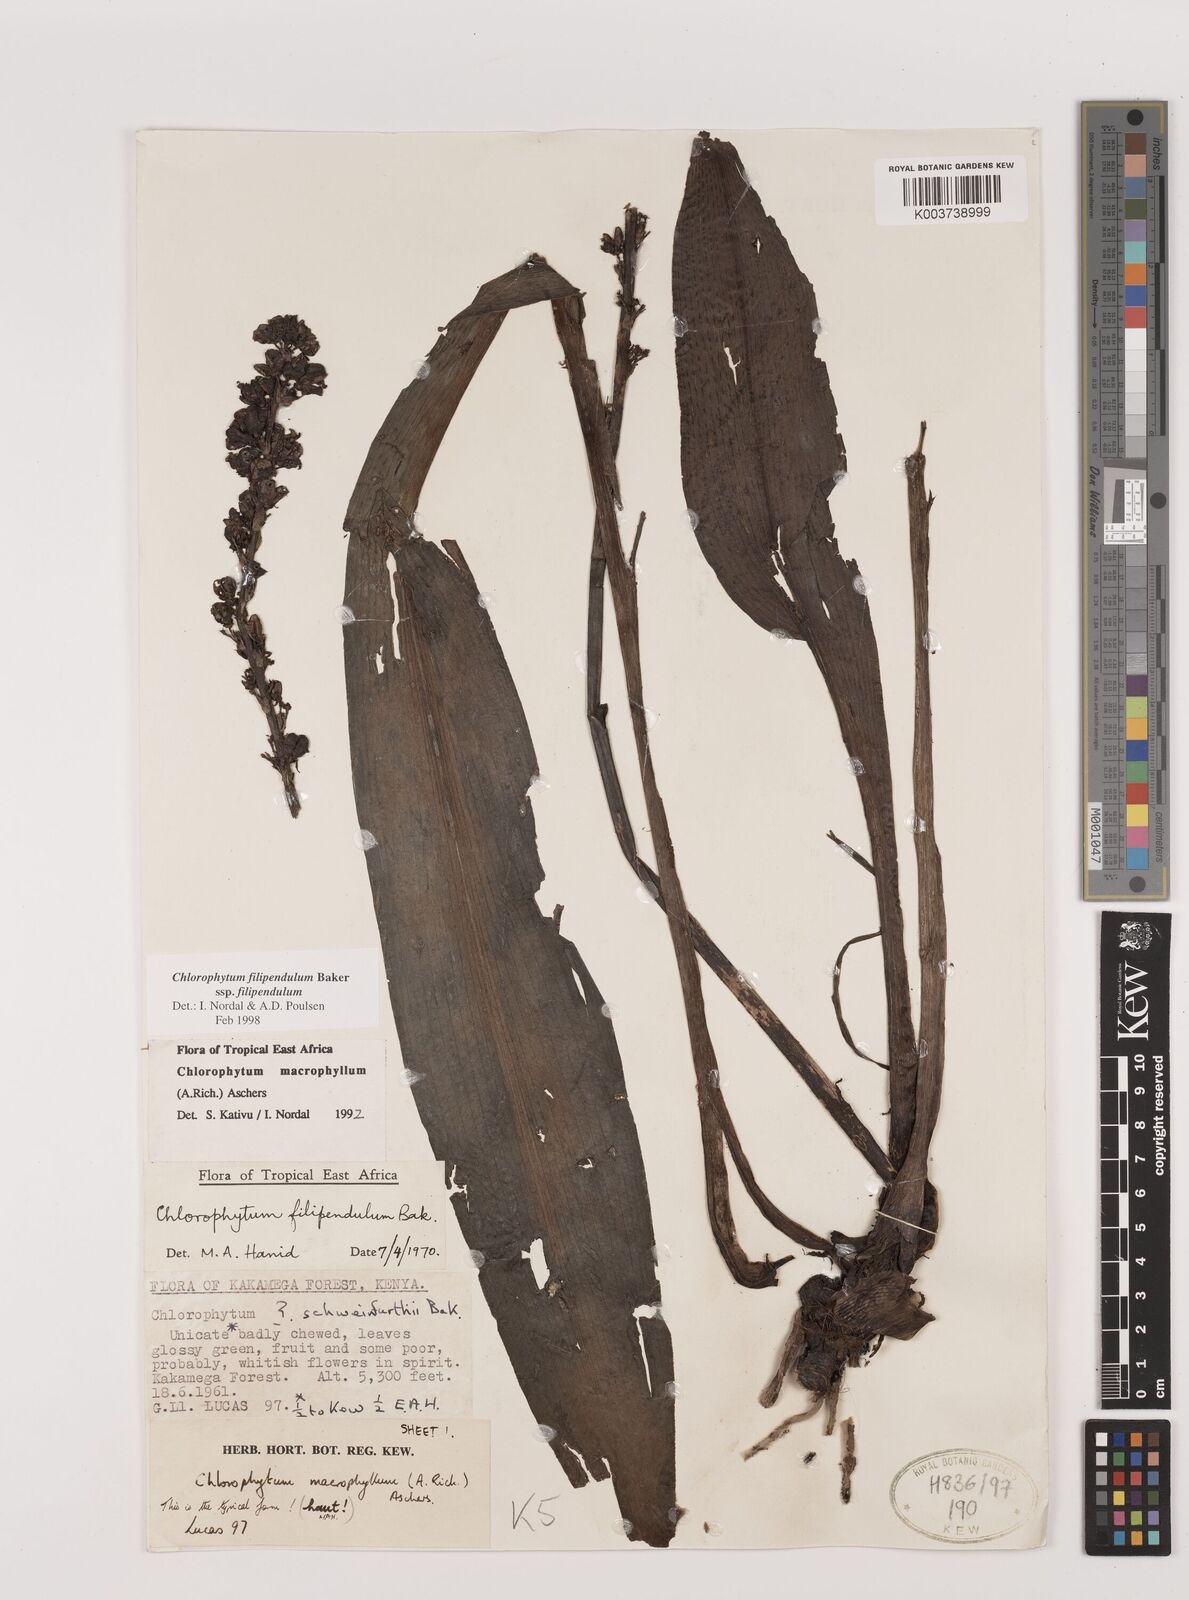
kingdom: Plantae
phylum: Tracheophyta
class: Liliopsida
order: Asparagales
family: Asparagaceae
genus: Chlorophytum
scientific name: Chlorophytum filipendulum
